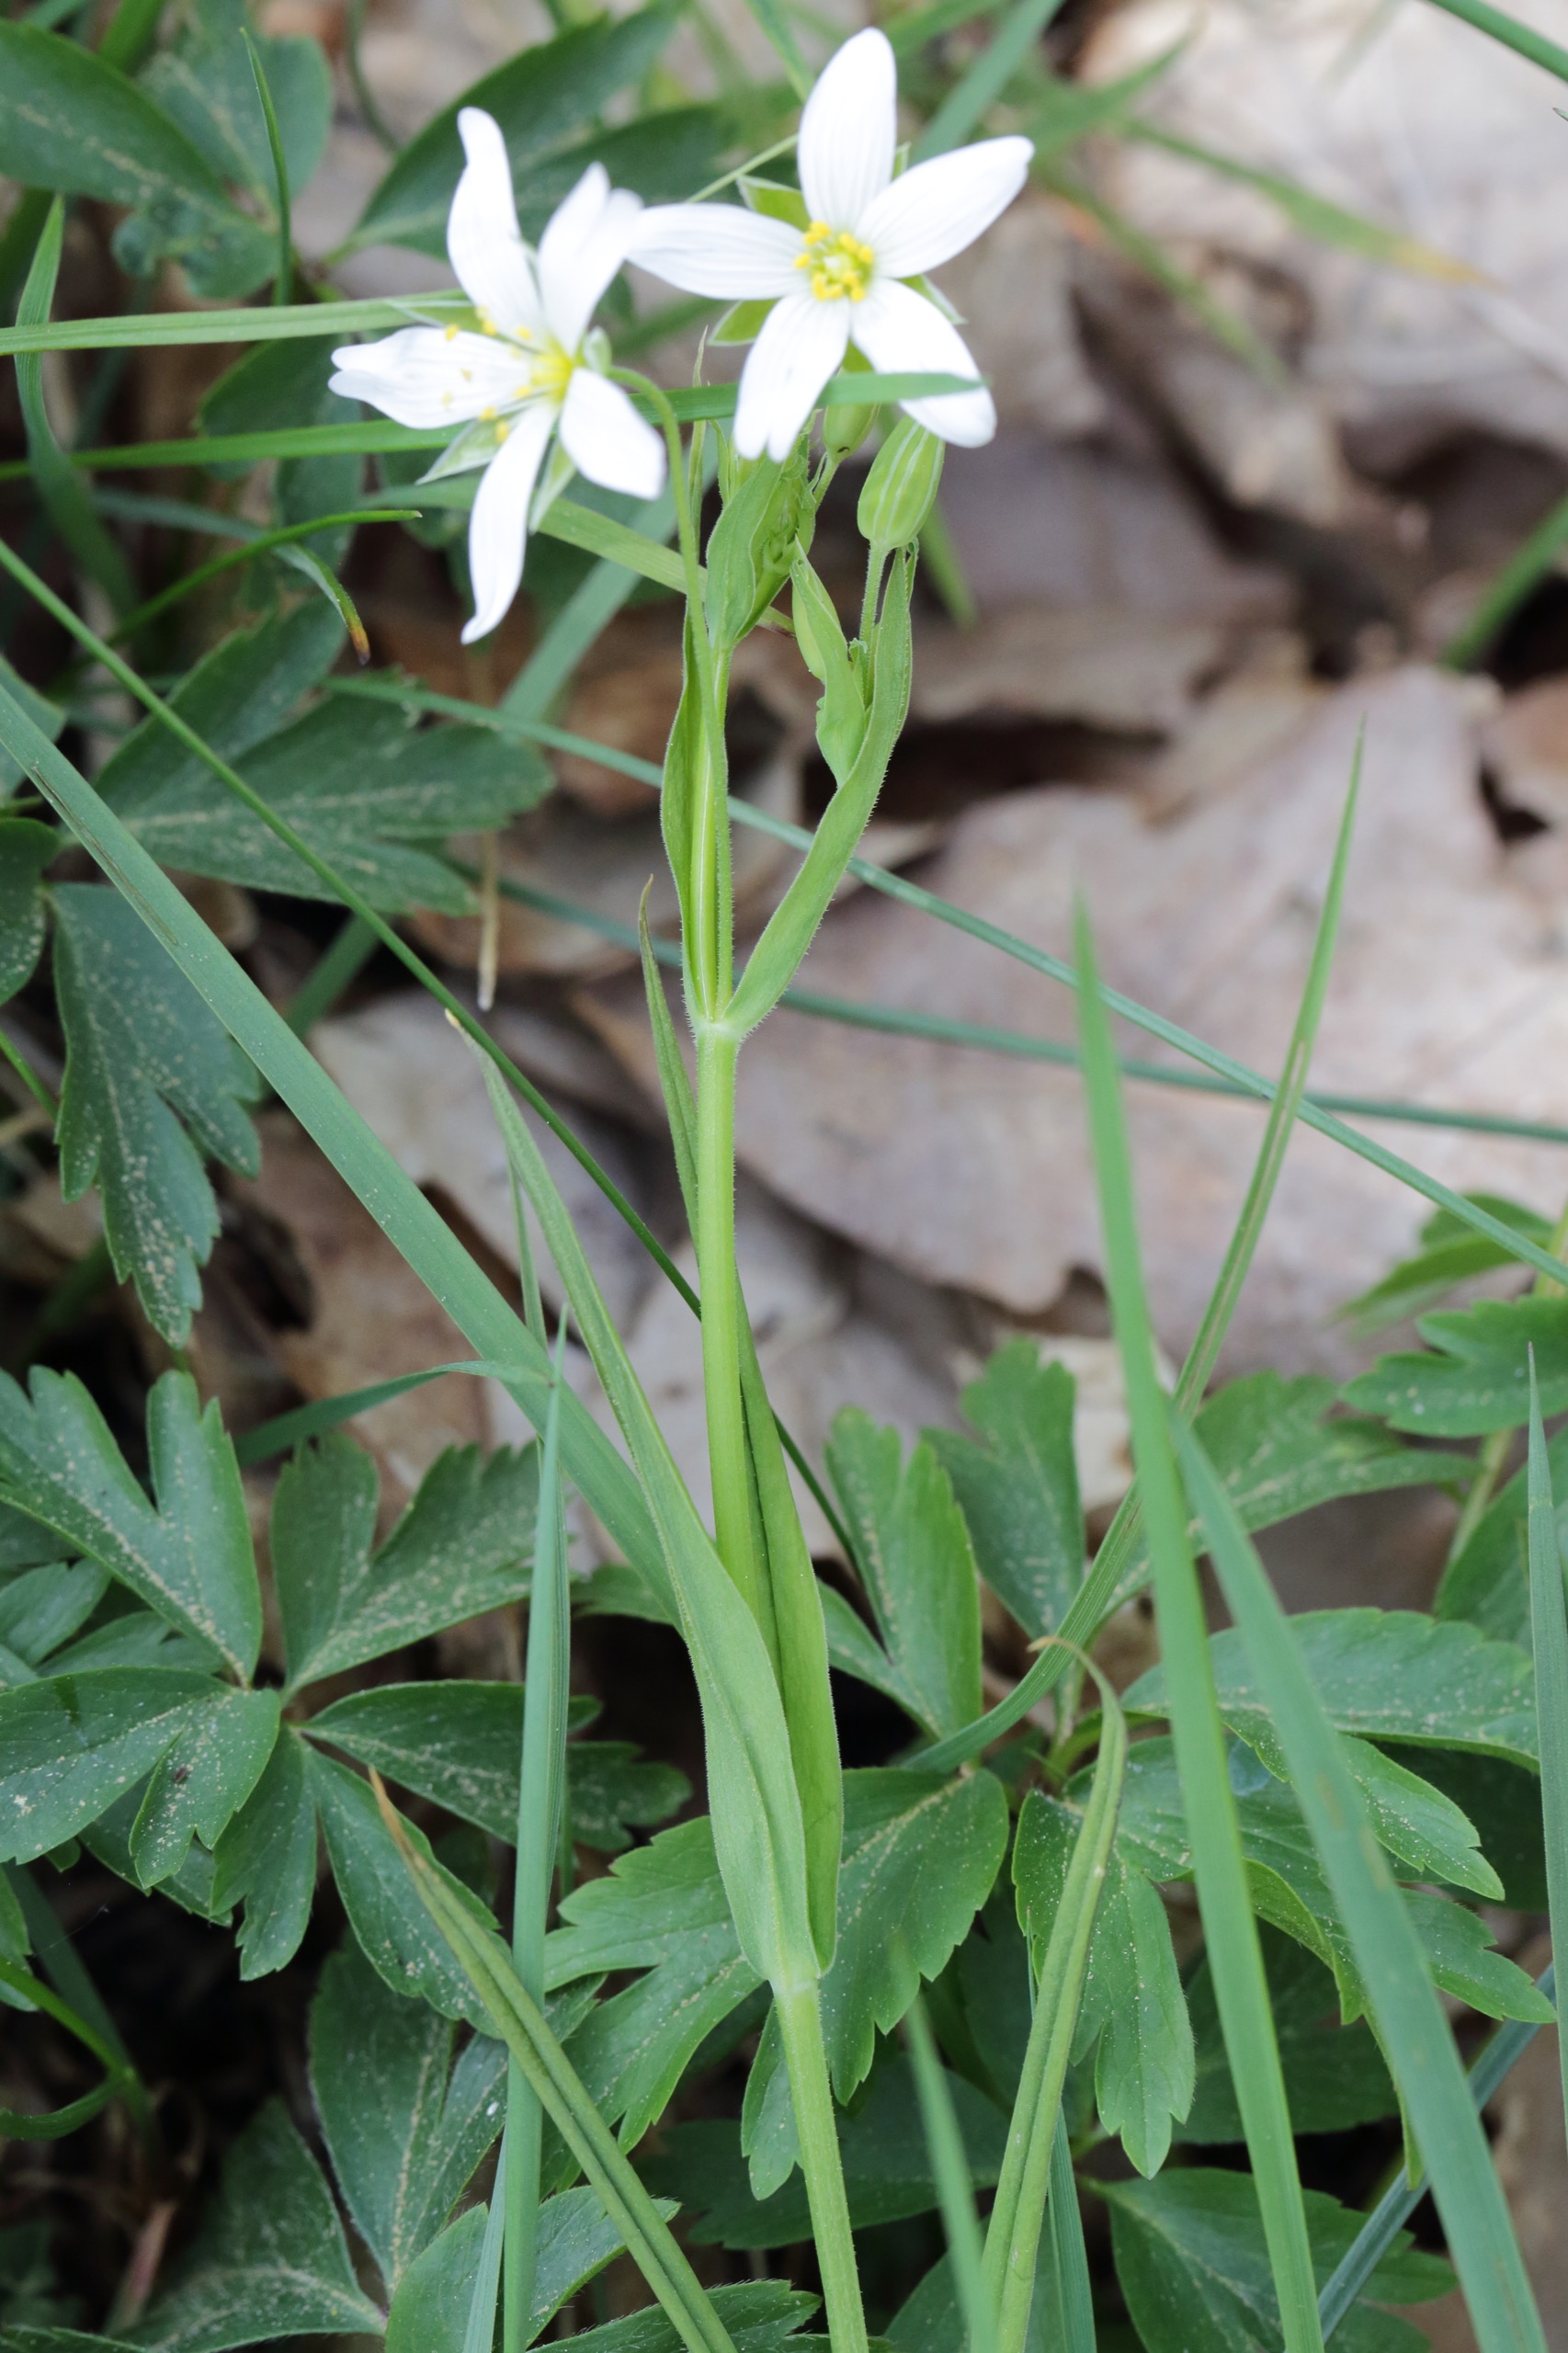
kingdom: Plantae
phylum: Tracheophyta
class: Magnoliopsida
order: Caryophyllales
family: Caryophyllaceae
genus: Rabelera
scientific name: Rabelera holostea
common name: Stor fladstjerne
